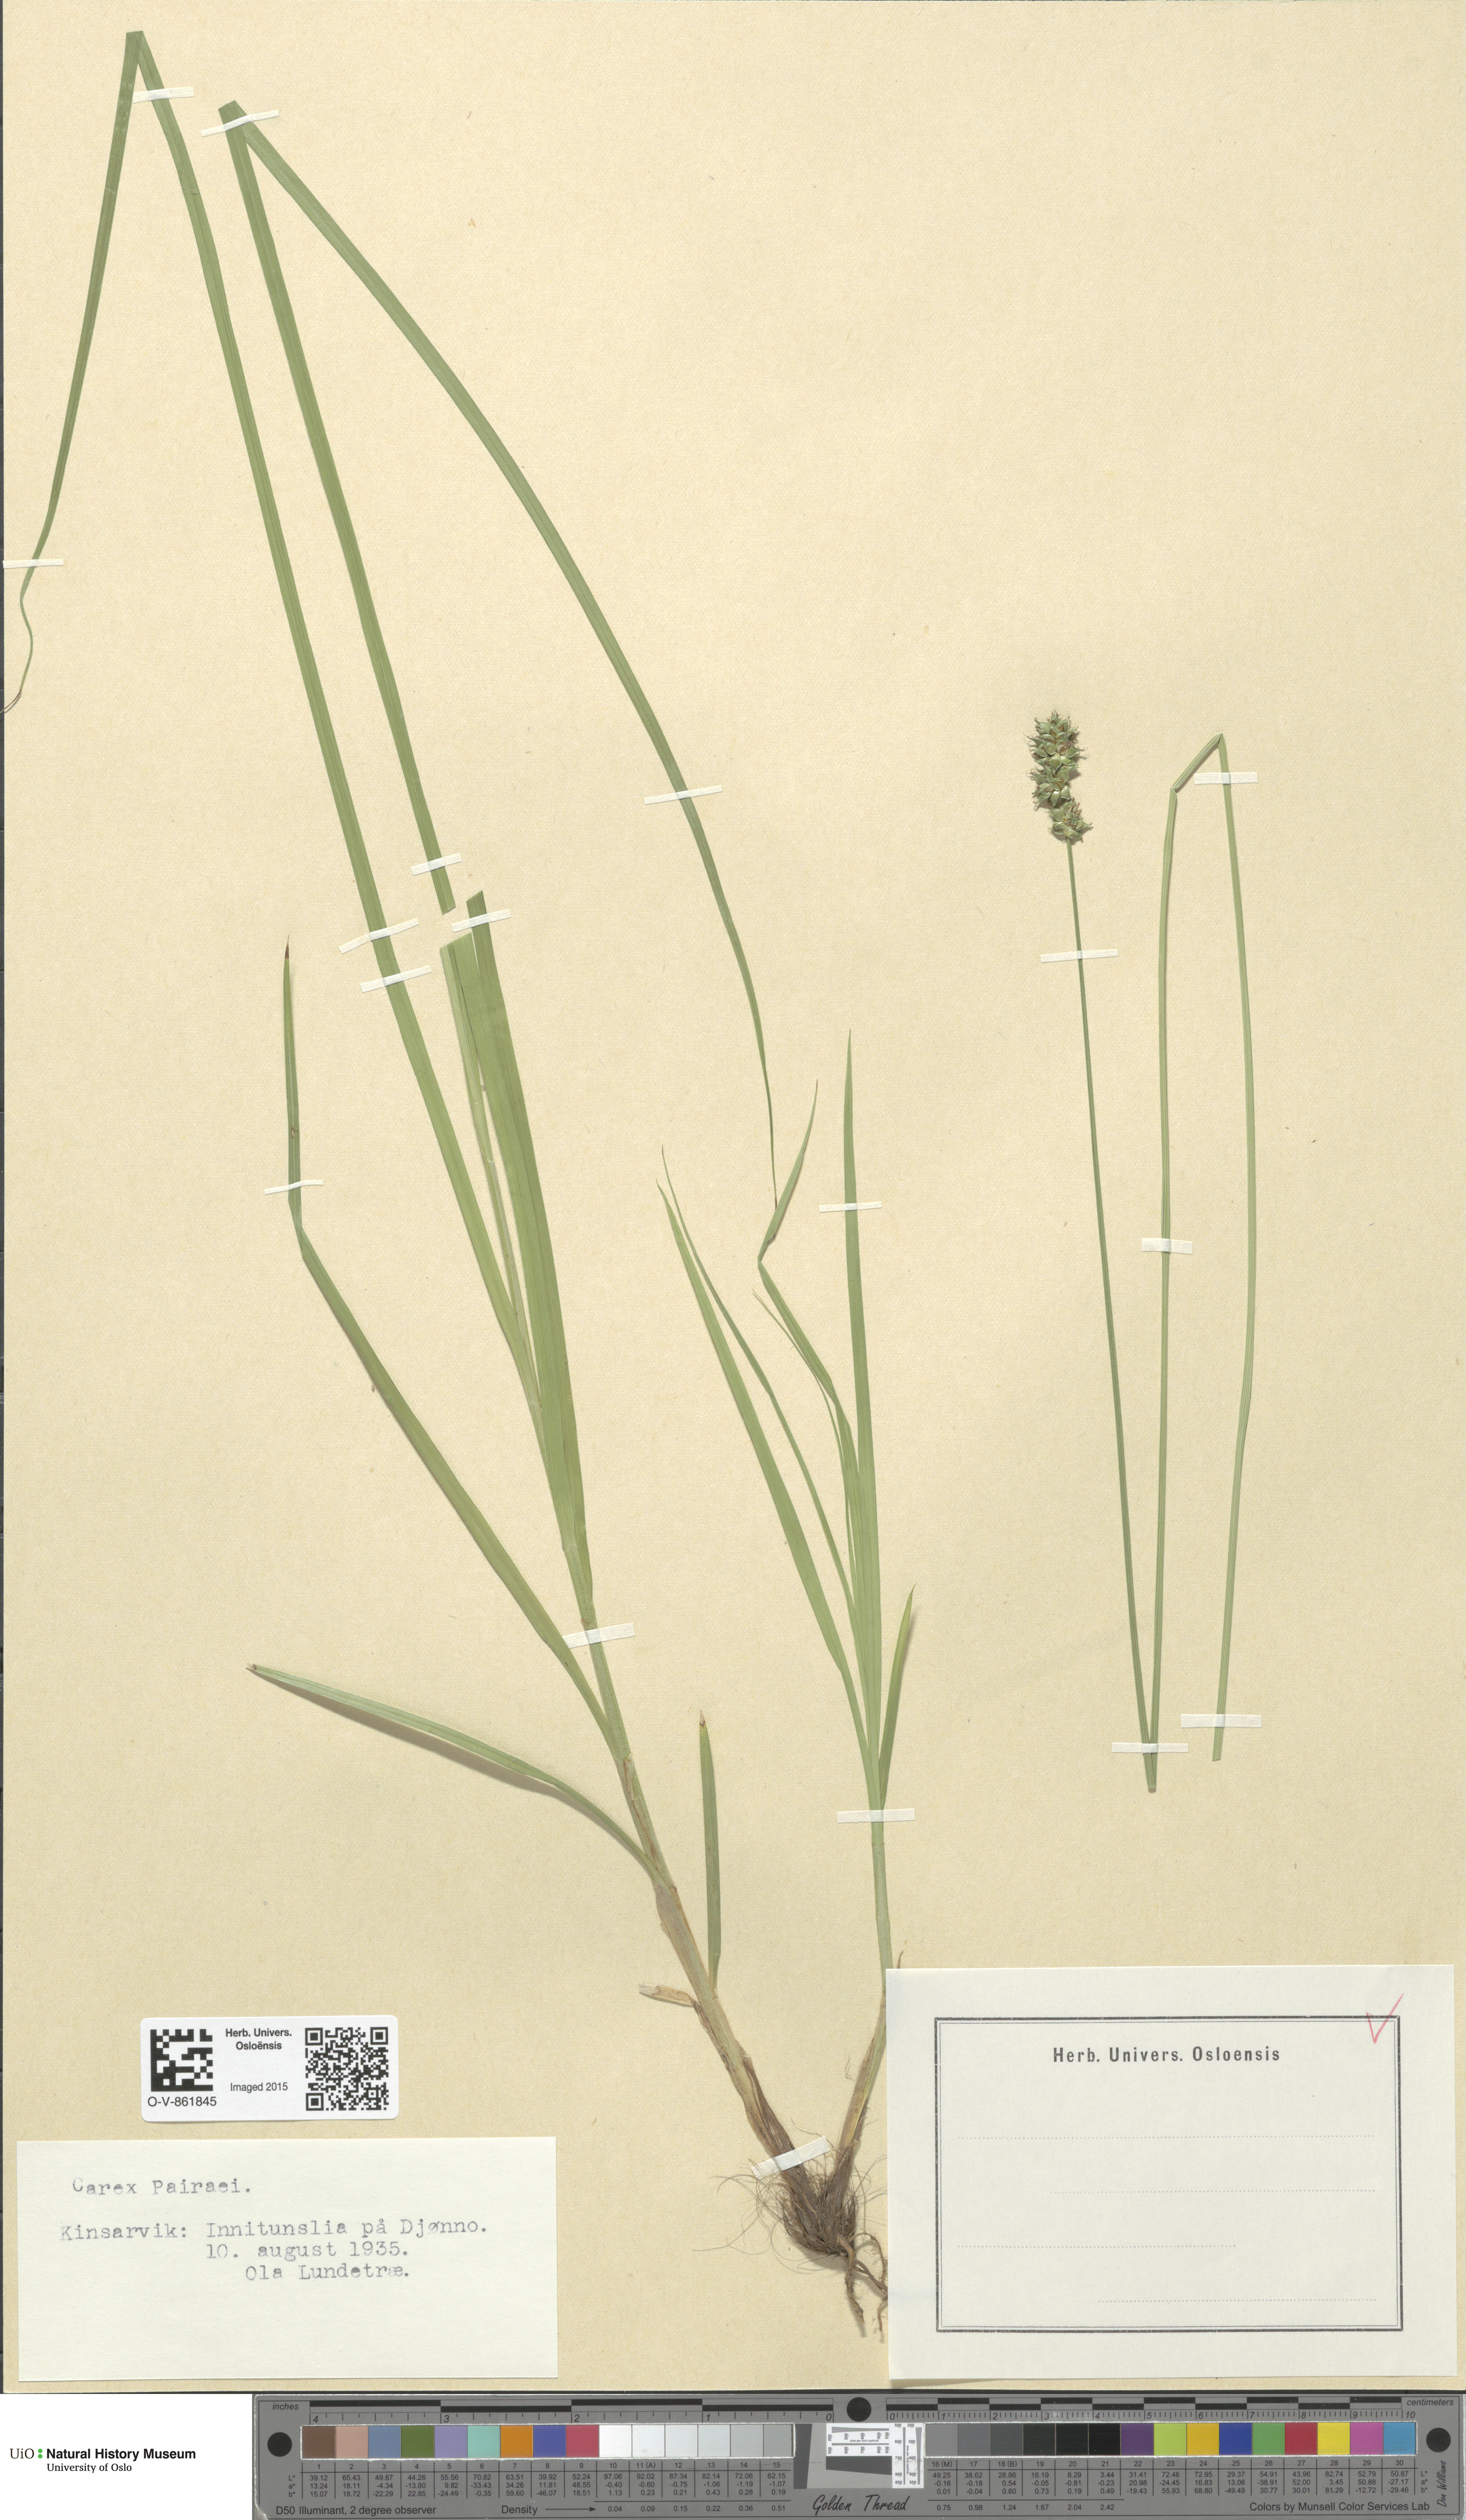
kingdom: Plantae
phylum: Tracheophyta
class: Liliopsida
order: Poales
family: Cyperaceae
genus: Carex
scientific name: Carex pairae
